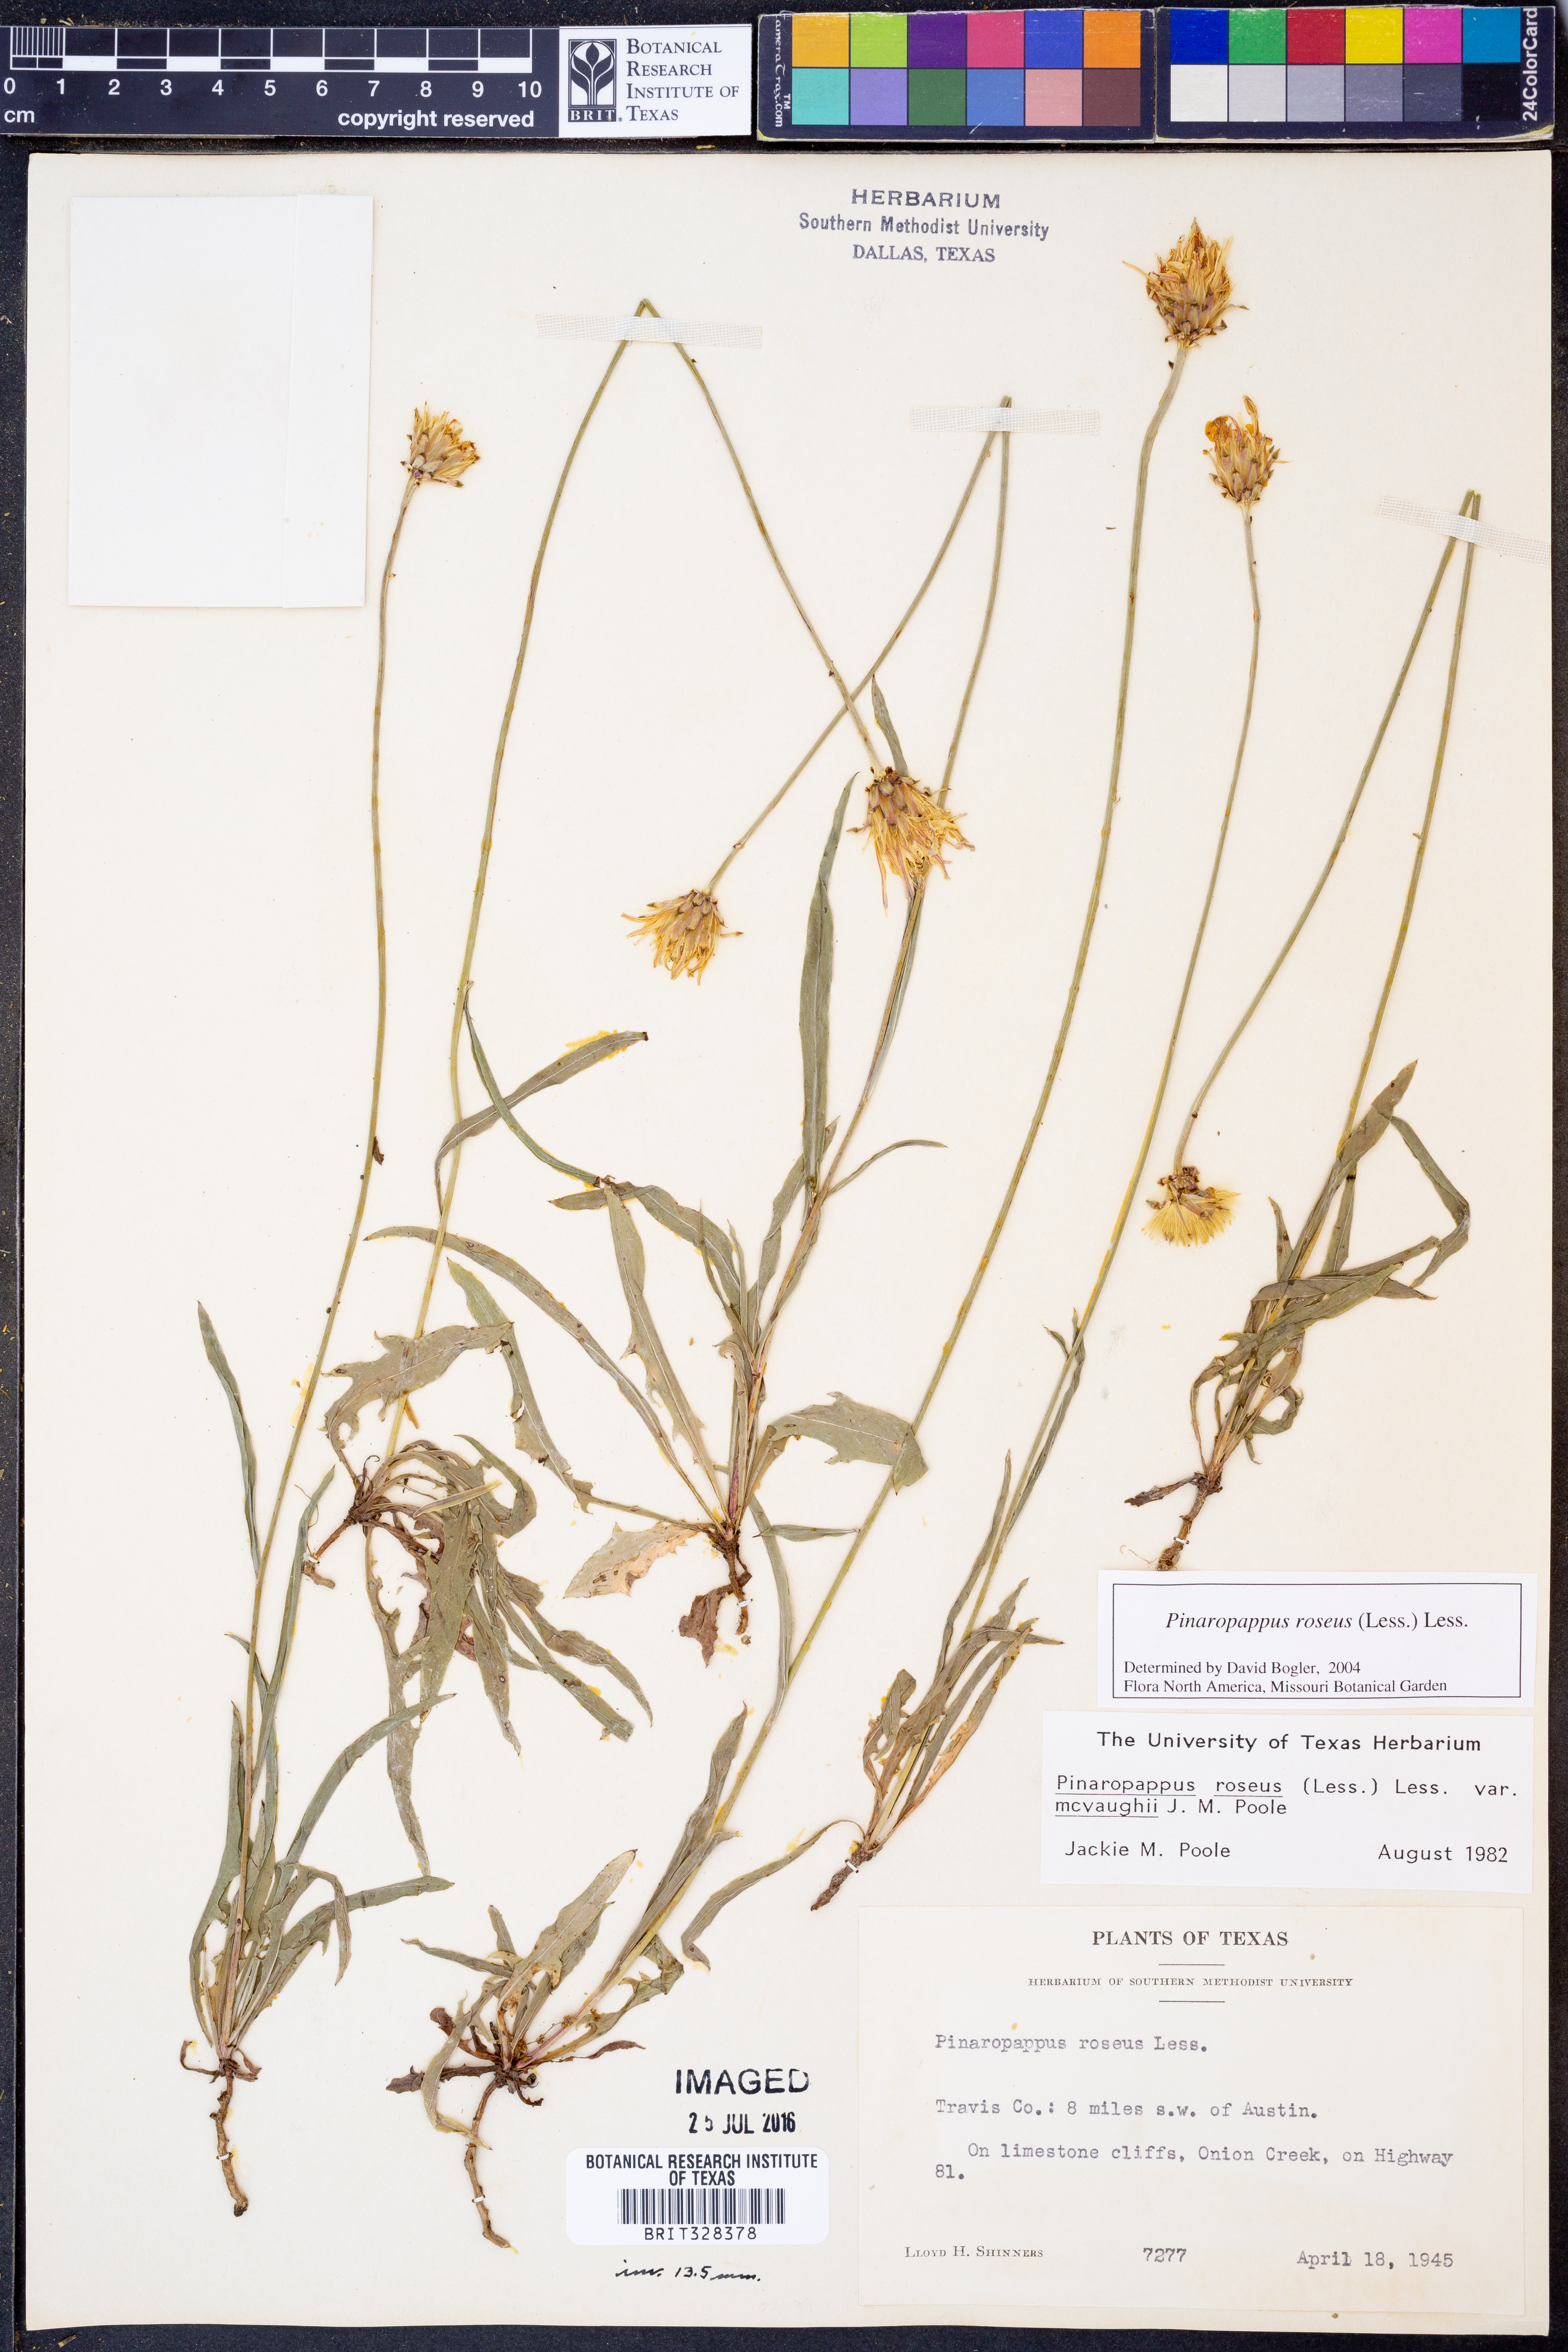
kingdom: Plantae
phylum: Tracheophyta
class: Magnoliopsida
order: Asterales
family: Asteraceae
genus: Pinaropappus
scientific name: Pinaropappus roseus
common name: Rock-lettuce
